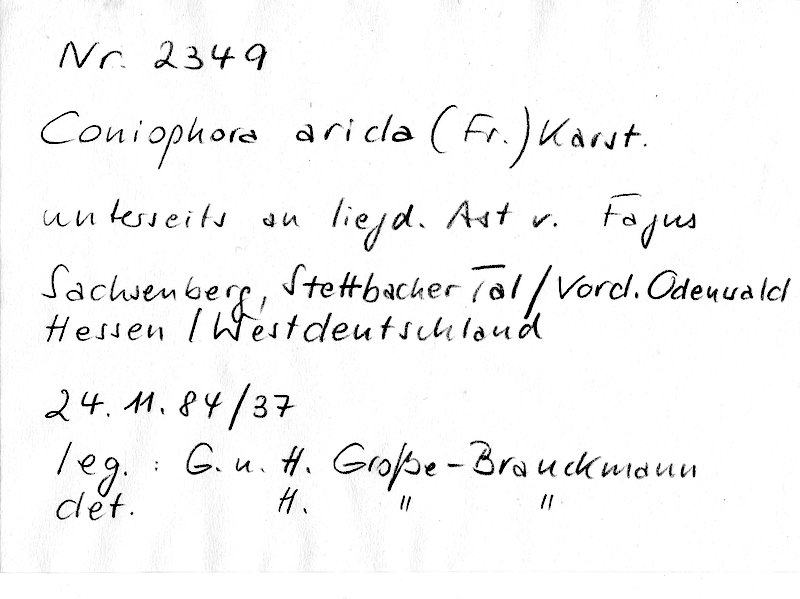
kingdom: Plantae
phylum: Tracheophyta
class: Magnoliopsida
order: Fagales
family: Fagaceae
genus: Fagus
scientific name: Fagus sylvatica
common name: Beech
